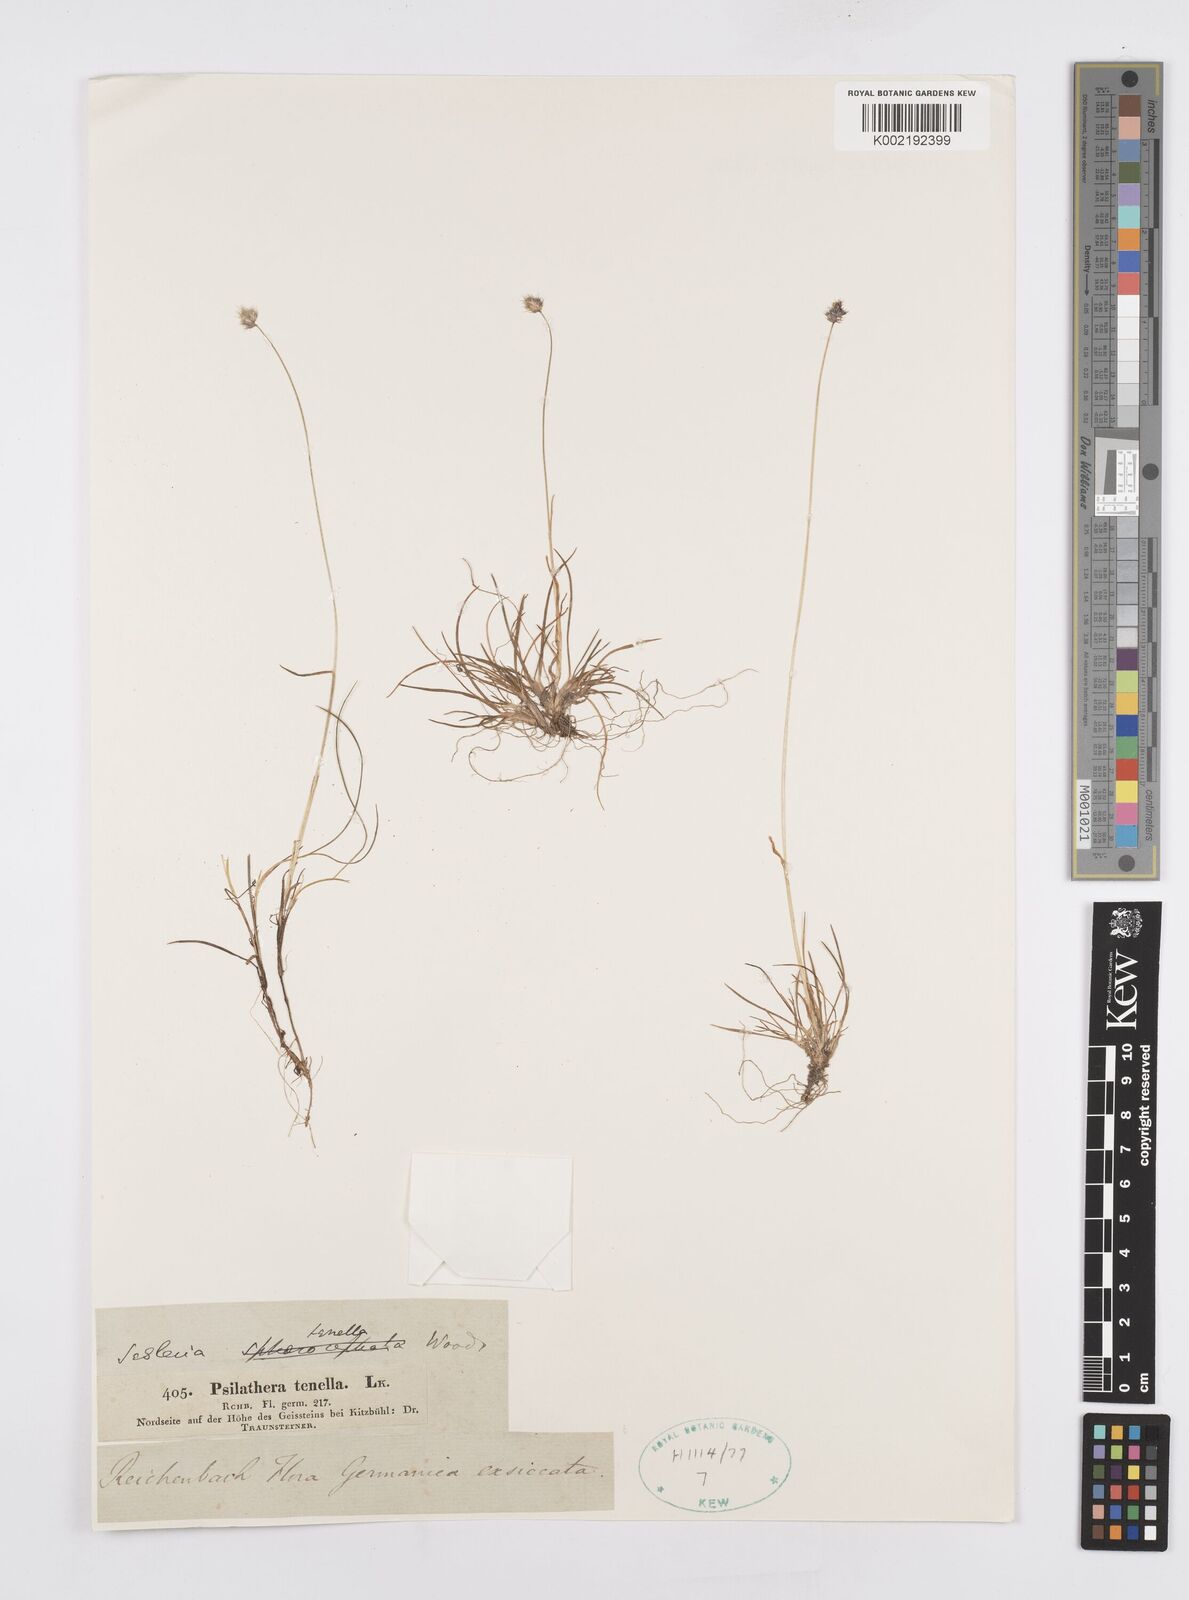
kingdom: Plantae
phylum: Tracheophyta
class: Liliopsida
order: Poales
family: Poaceae
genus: Psilathera
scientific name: Psilathera ovata
